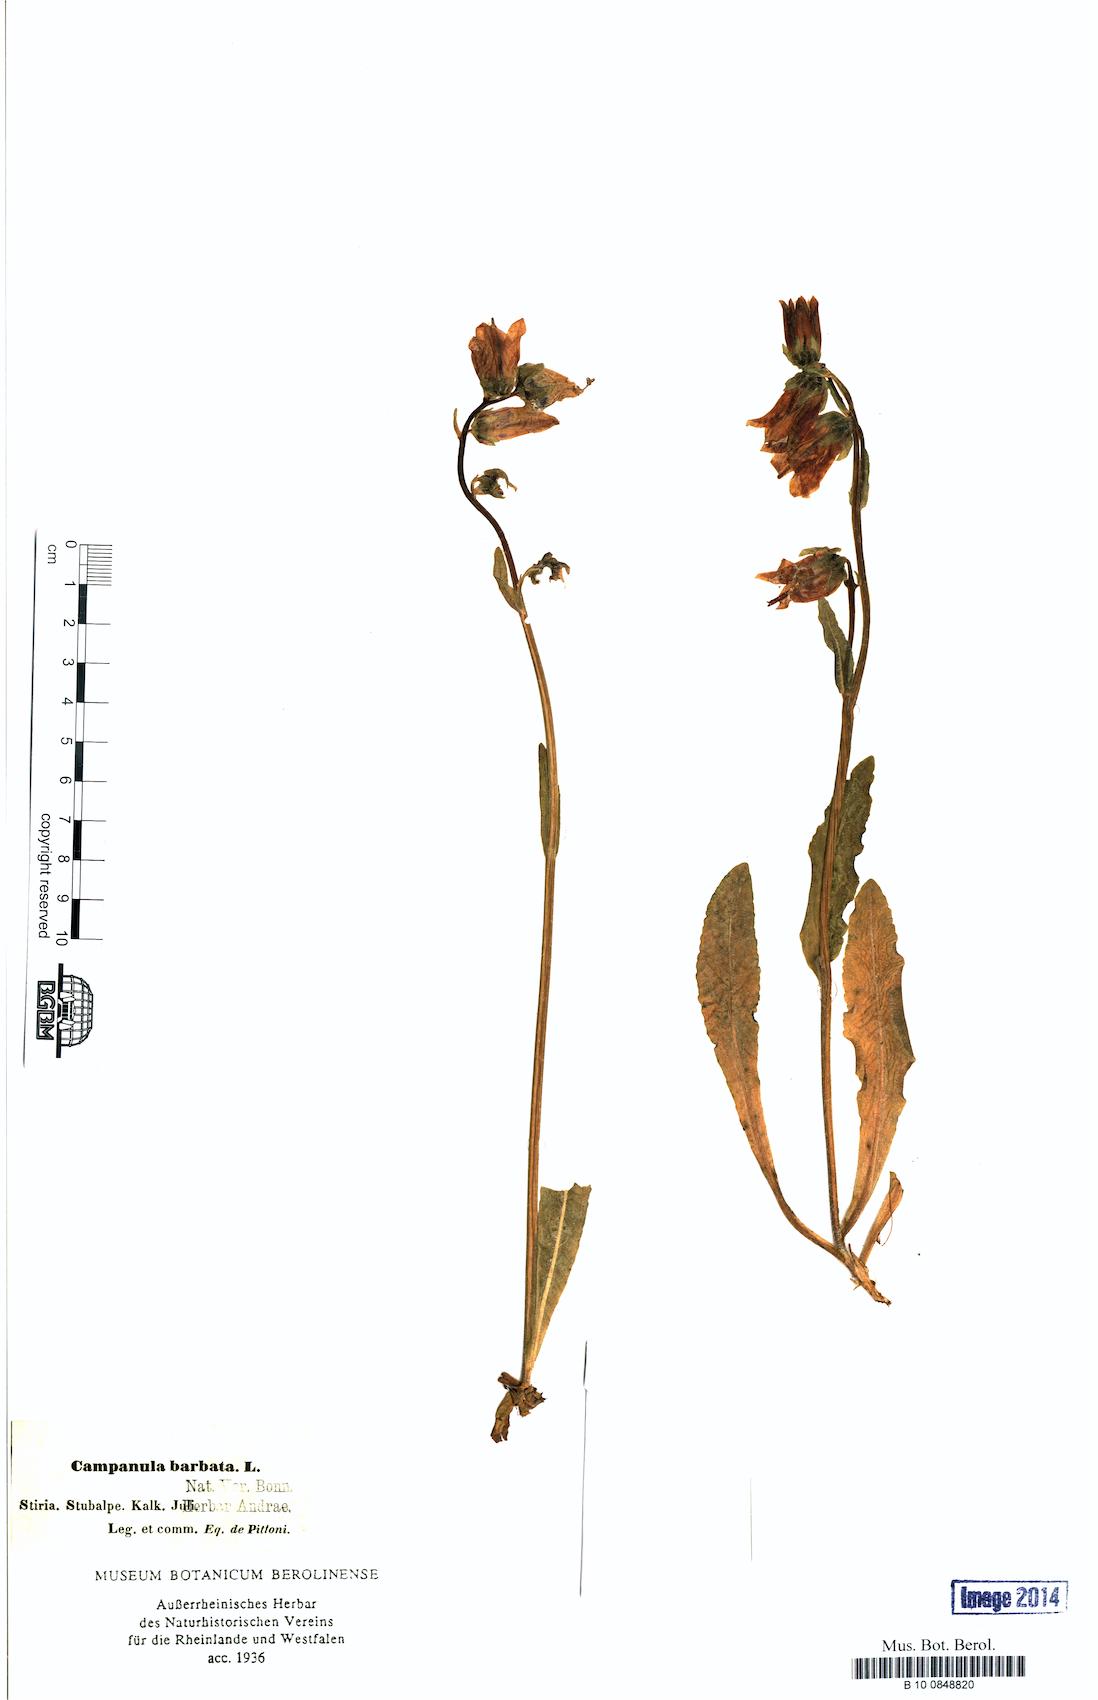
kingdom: Plantae
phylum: Tracheophyta
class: Magnoliopsida
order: Asterales
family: Campanulaceae
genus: Campanula
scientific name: Campanula barbata
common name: Bearded bellflower
